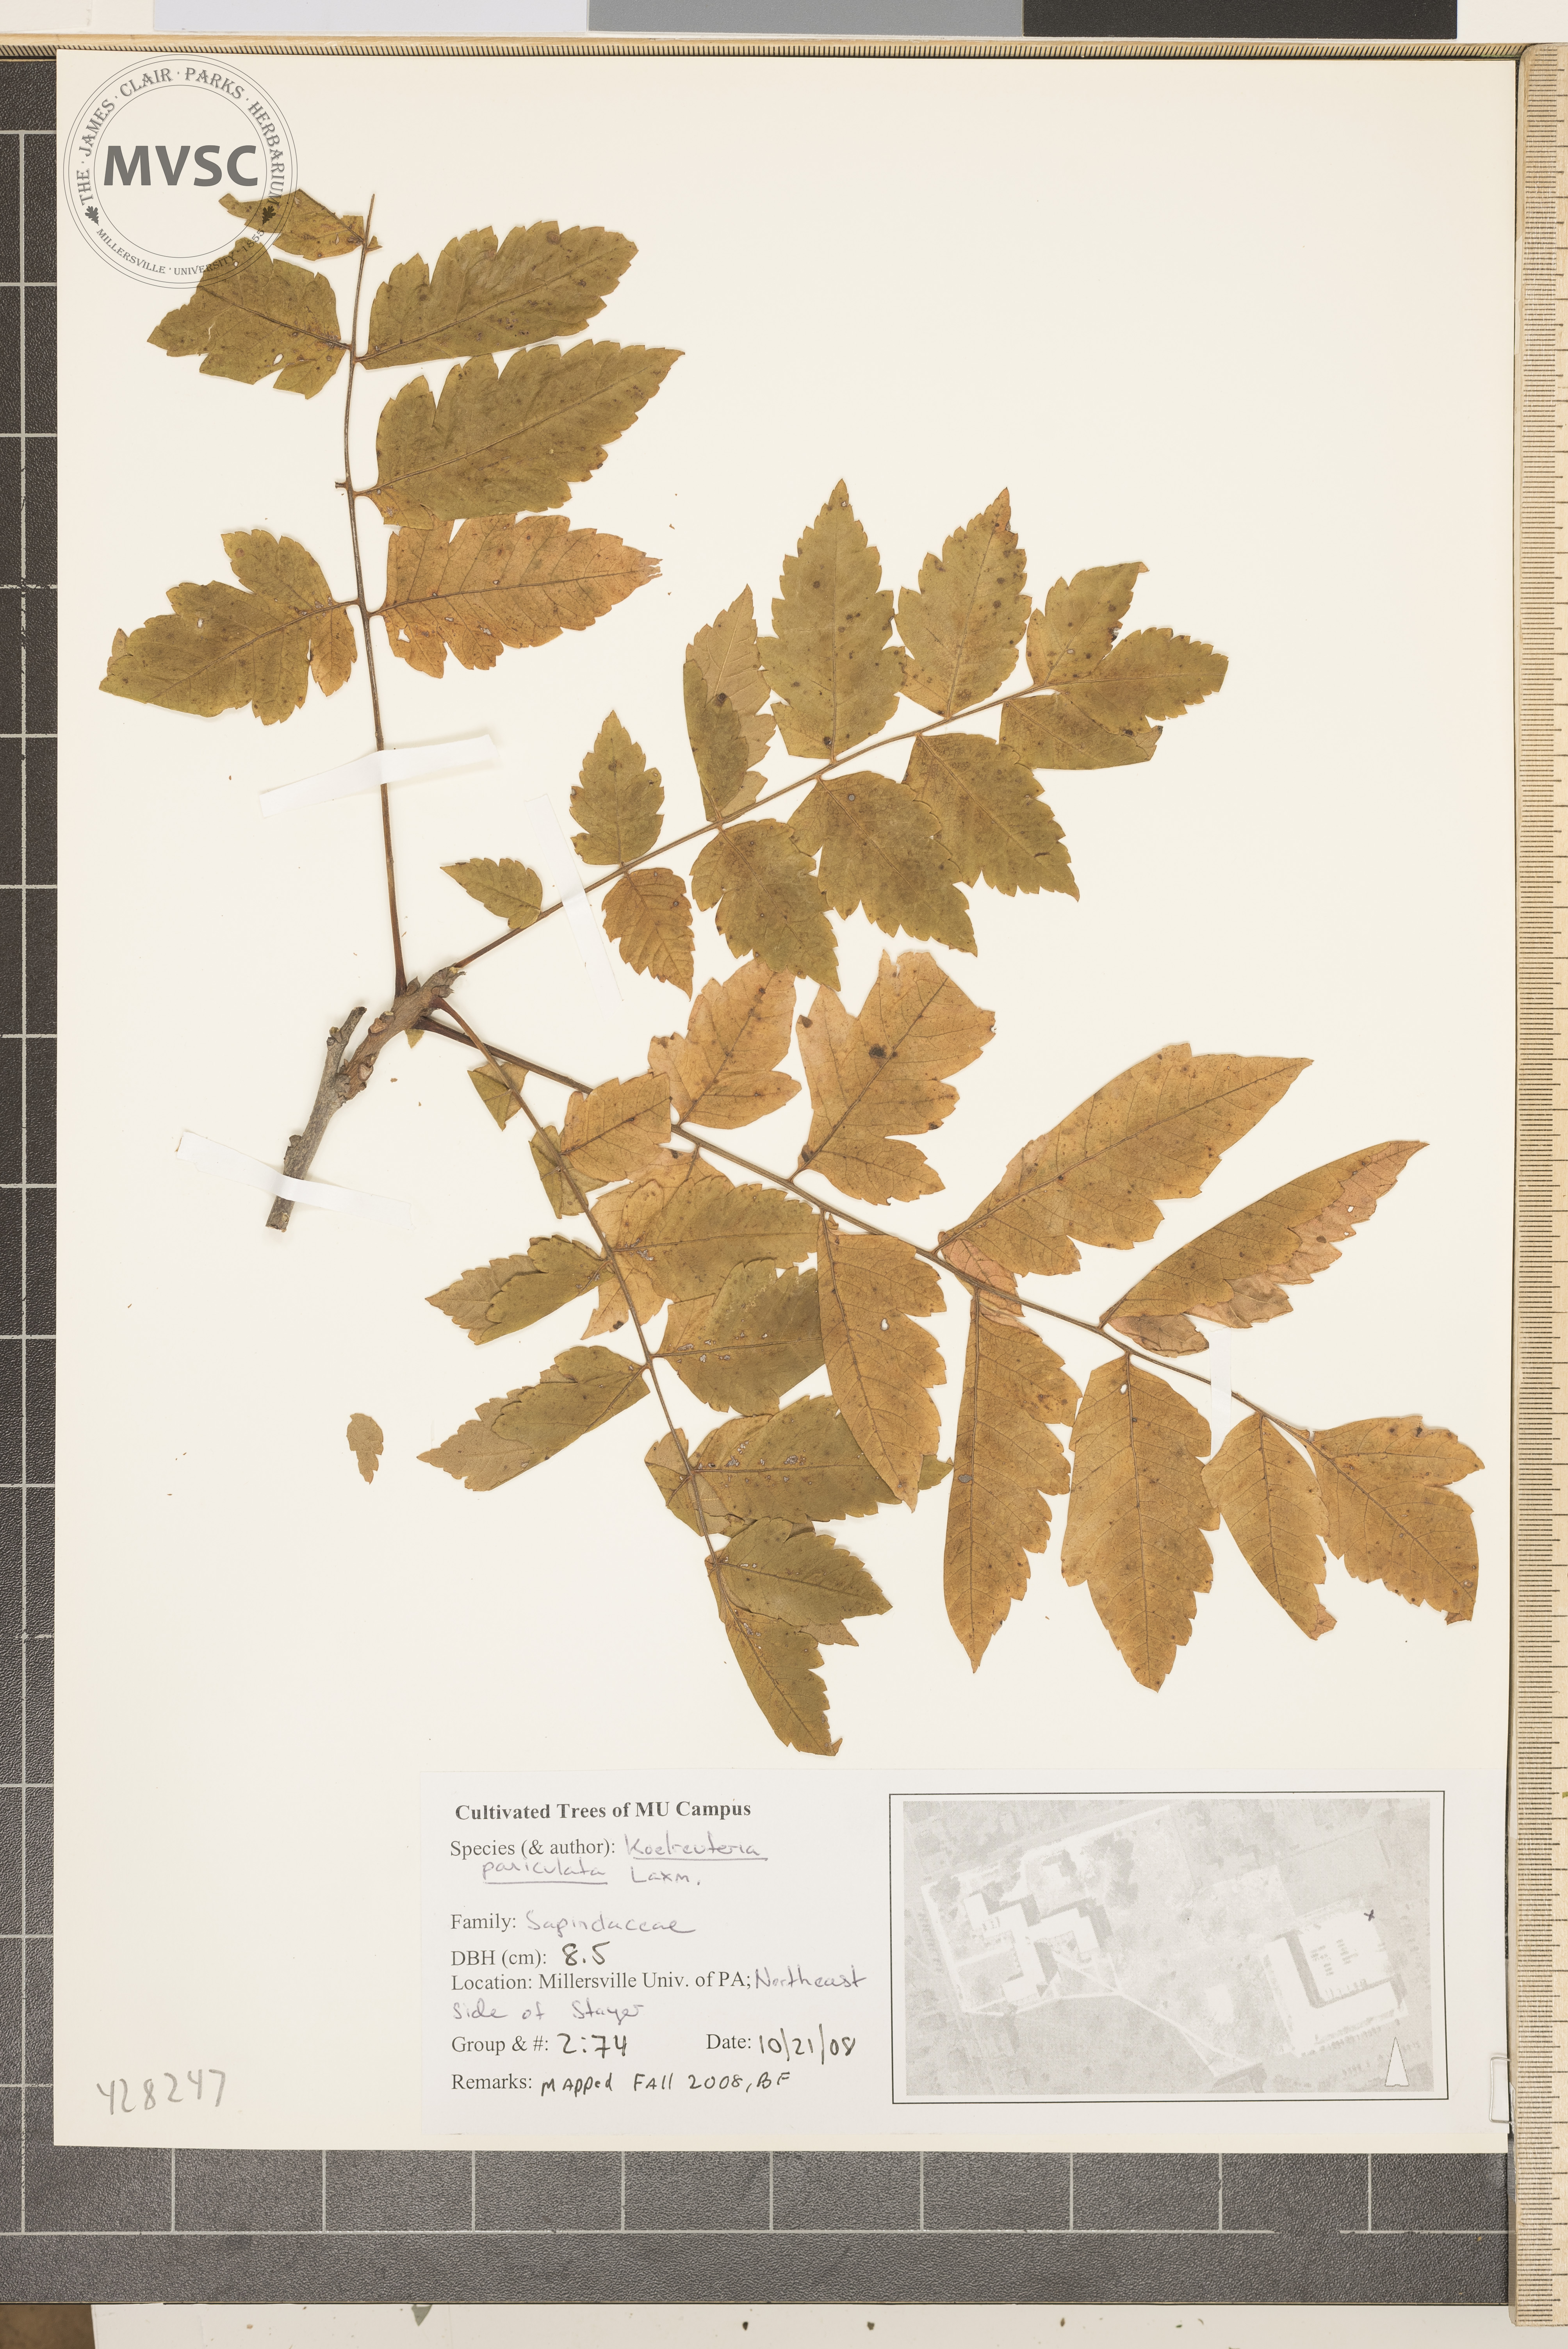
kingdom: Plantae
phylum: Tracheophyta
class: Magnoliopsida
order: Sapindales
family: Sapindaceae
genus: Koelreuteria
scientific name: Koelreuteria paniculata
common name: Golden Rain Tree
